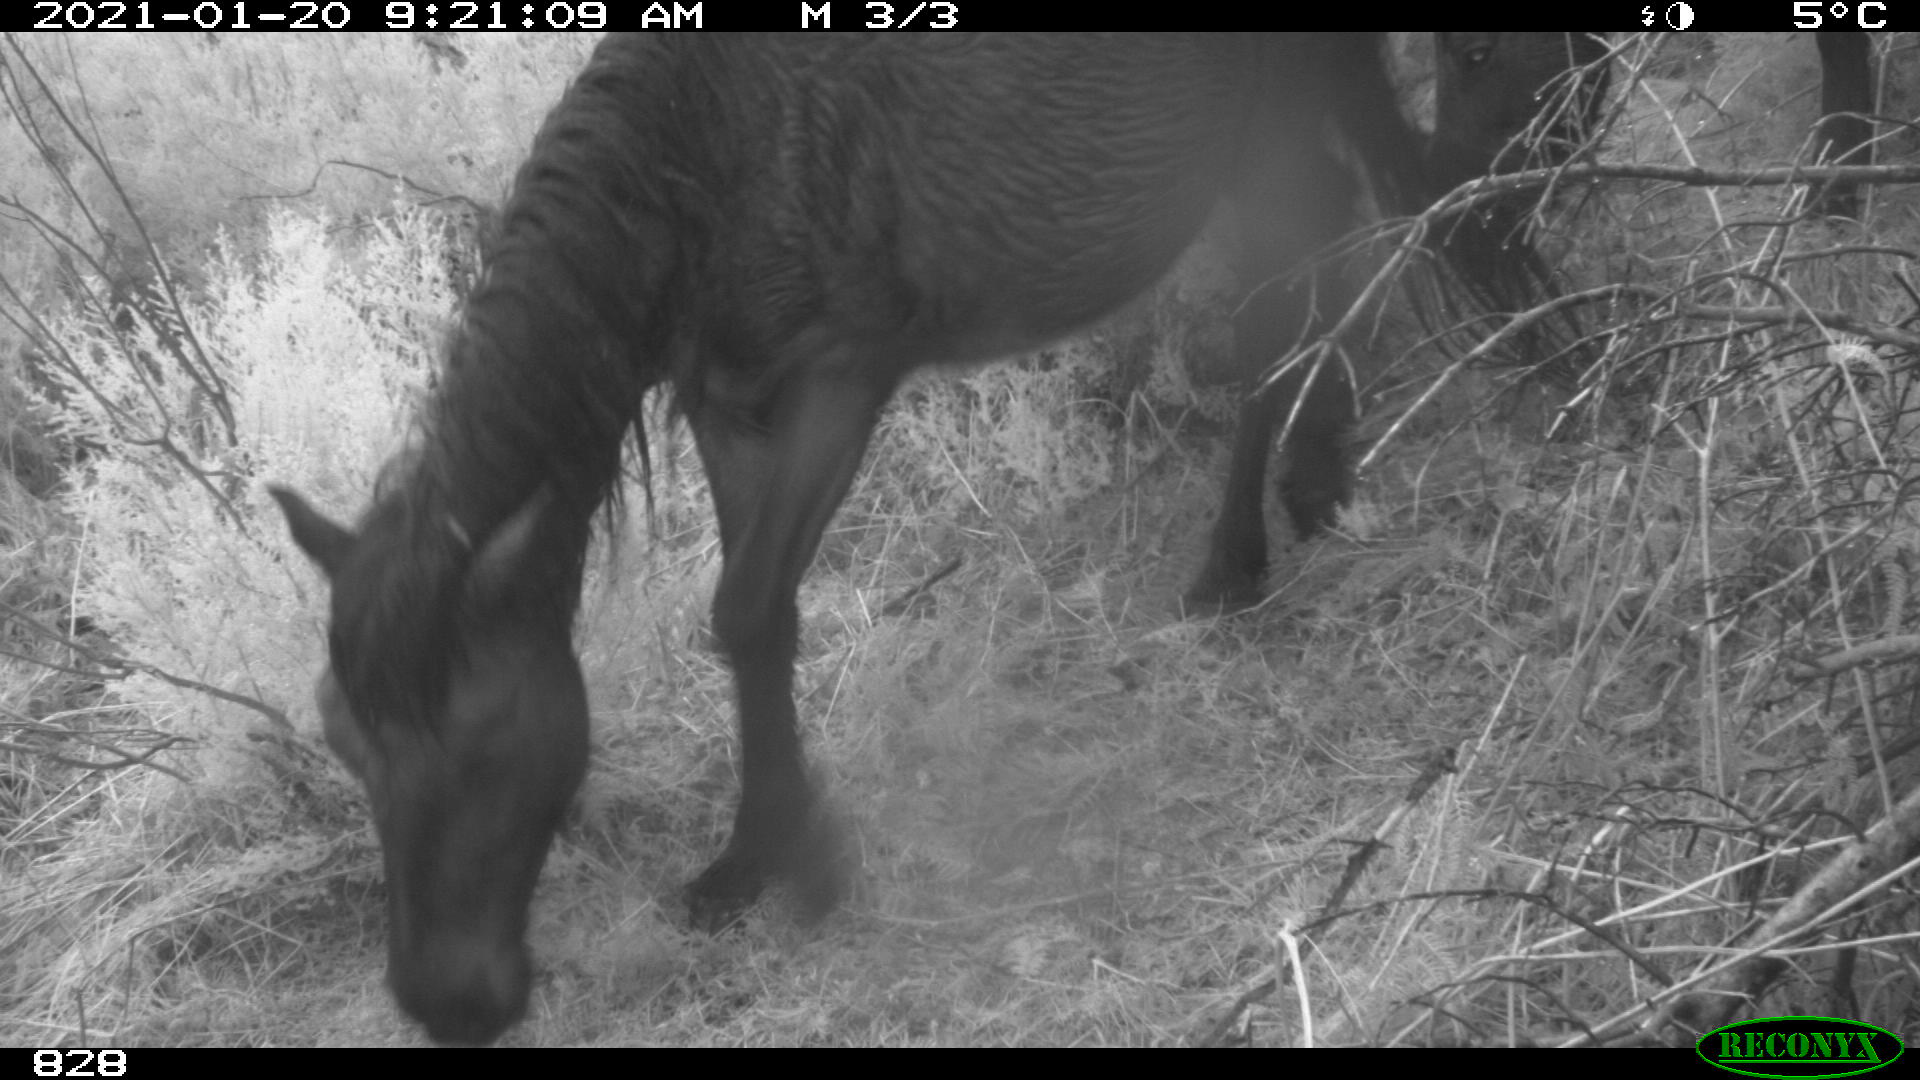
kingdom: Animalia
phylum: Chordata
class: Mammalia
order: Perissodactyla
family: Equidae
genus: Equus
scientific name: Equus caballus
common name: Horse
